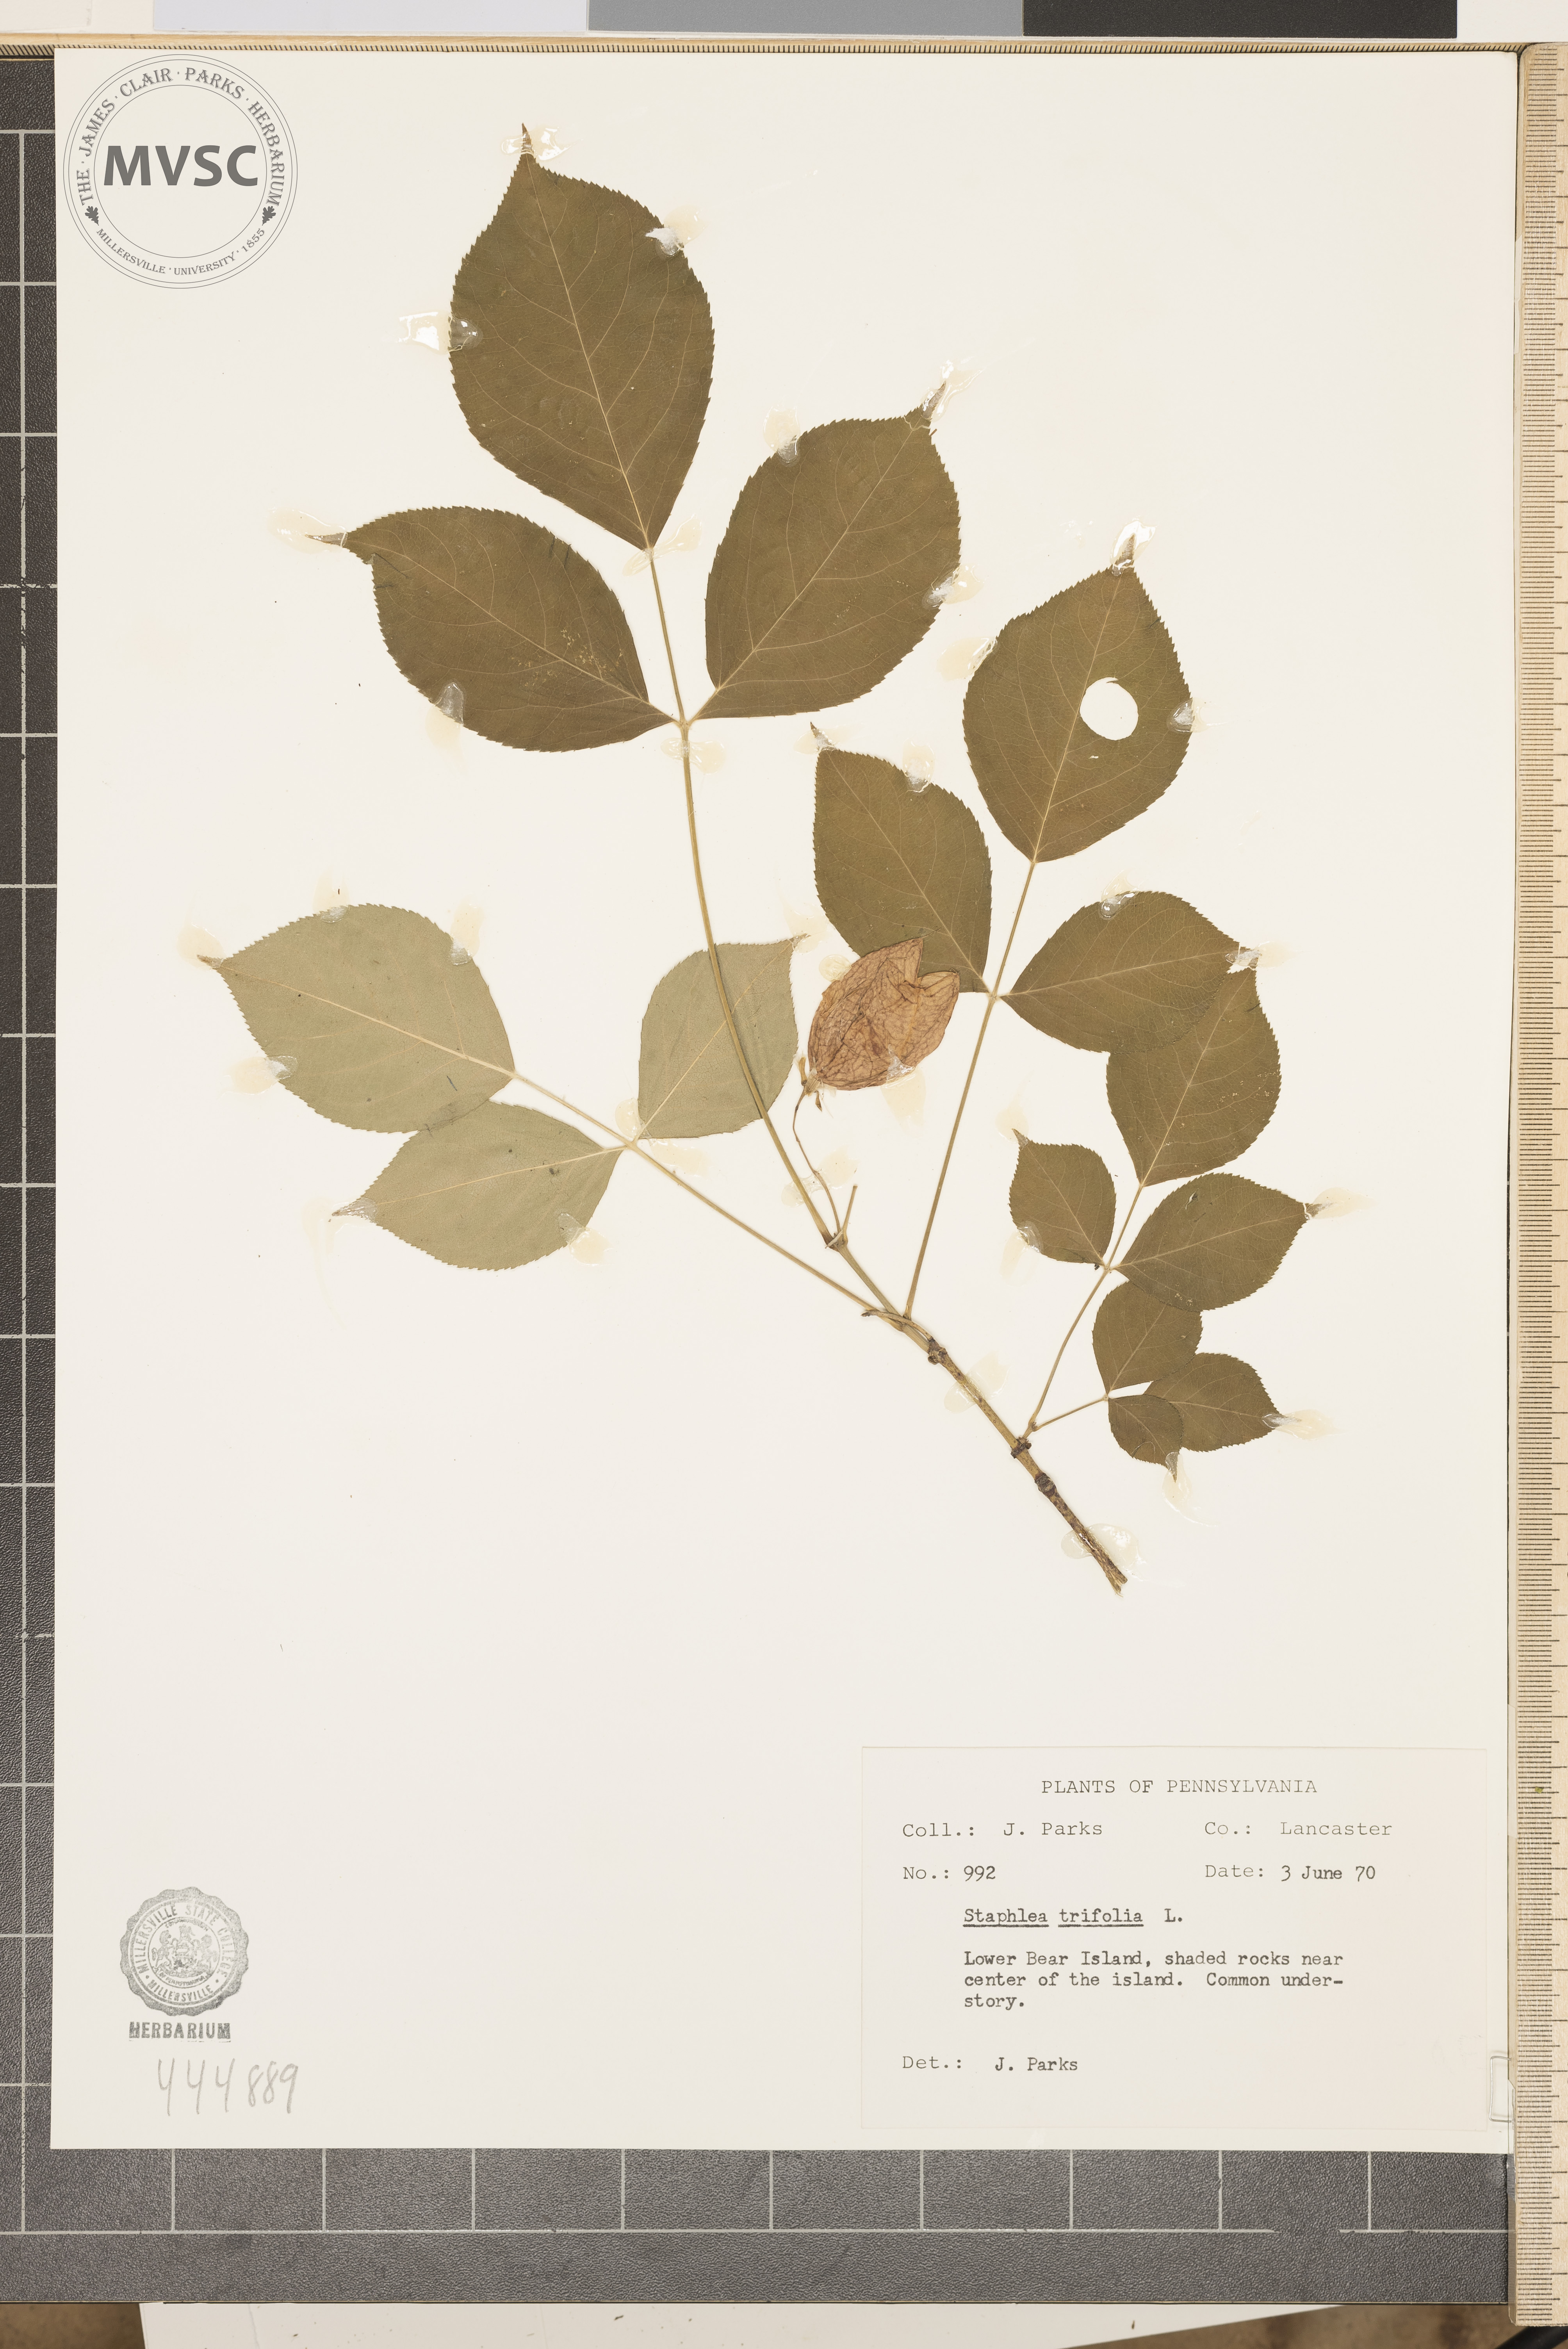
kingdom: Plantae
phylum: Tracheophyta
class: Magnoliopsida
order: Crossosomatales
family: Staphyleaceae
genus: Staphylea
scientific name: Staphylea trifolia
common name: American bladdernut
